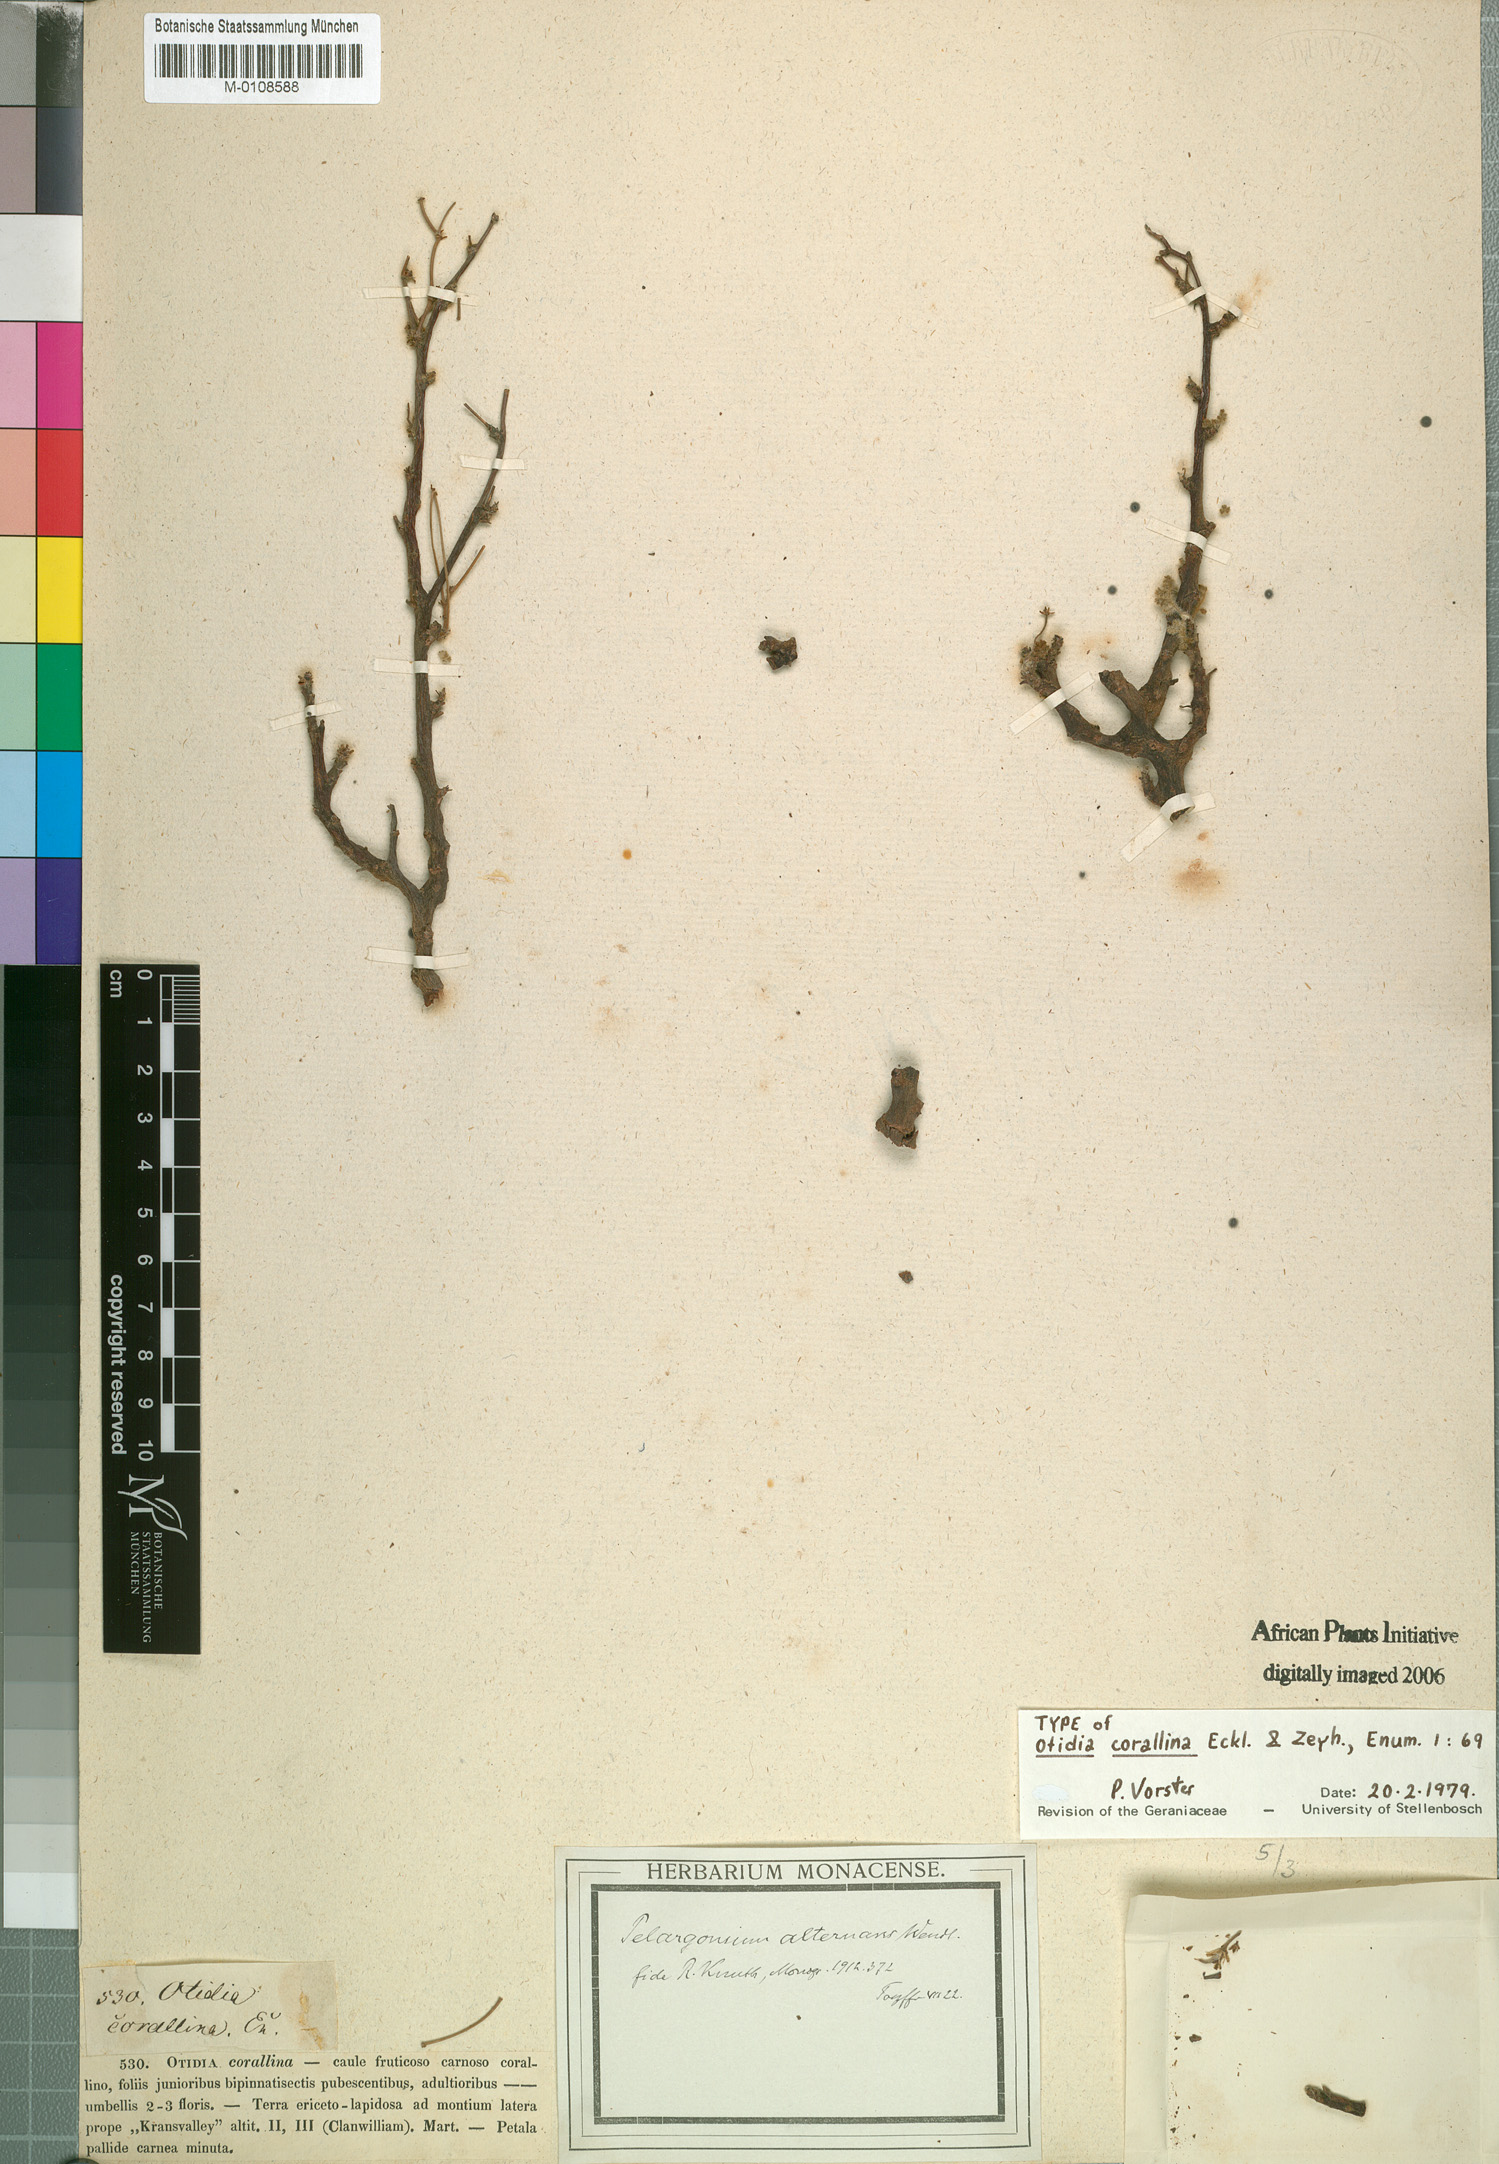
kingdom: Plantae
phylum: Tracheophyta
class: Magnoliopsida
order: Geraniales
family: Geraniaceae
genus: Pelargonium
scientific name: Pelargonium corallinum
